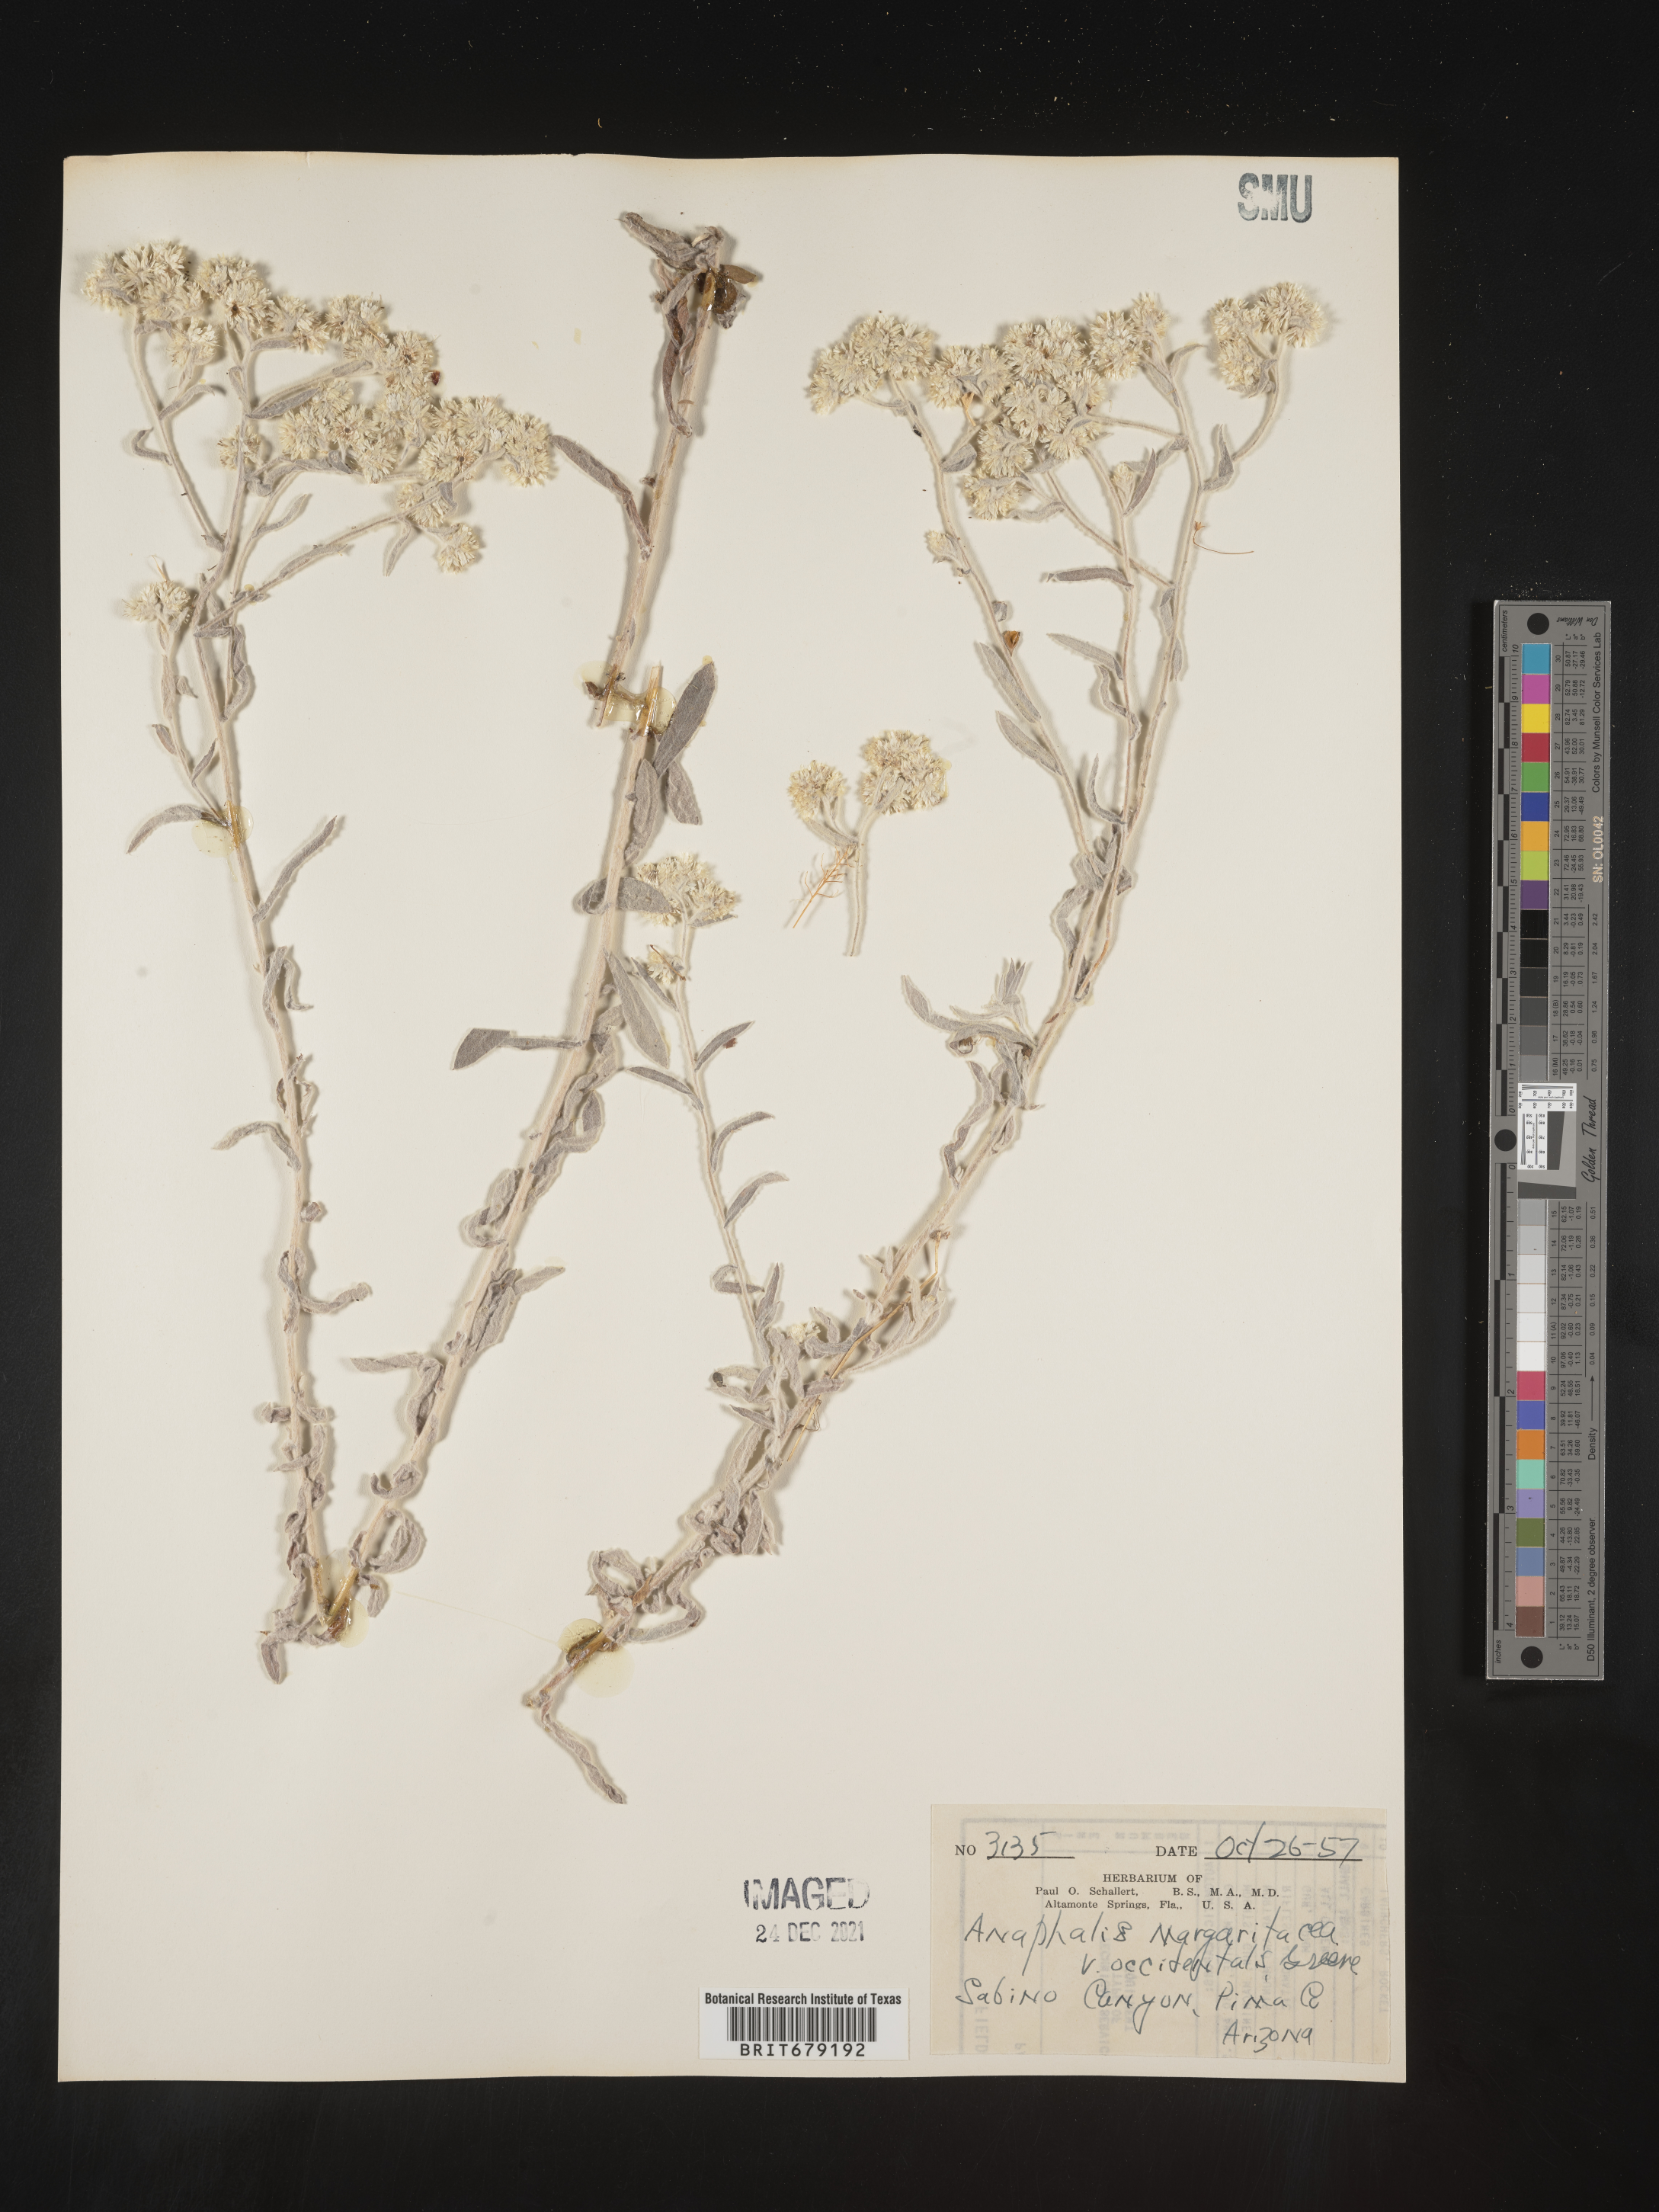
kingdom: Plantae
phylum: Tracheophyta
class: Magnoliopsida
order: Asterales
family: Asteraceae
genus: Anaphalis
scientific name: Anaphalis margaritacea
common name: Pearly everlasting
